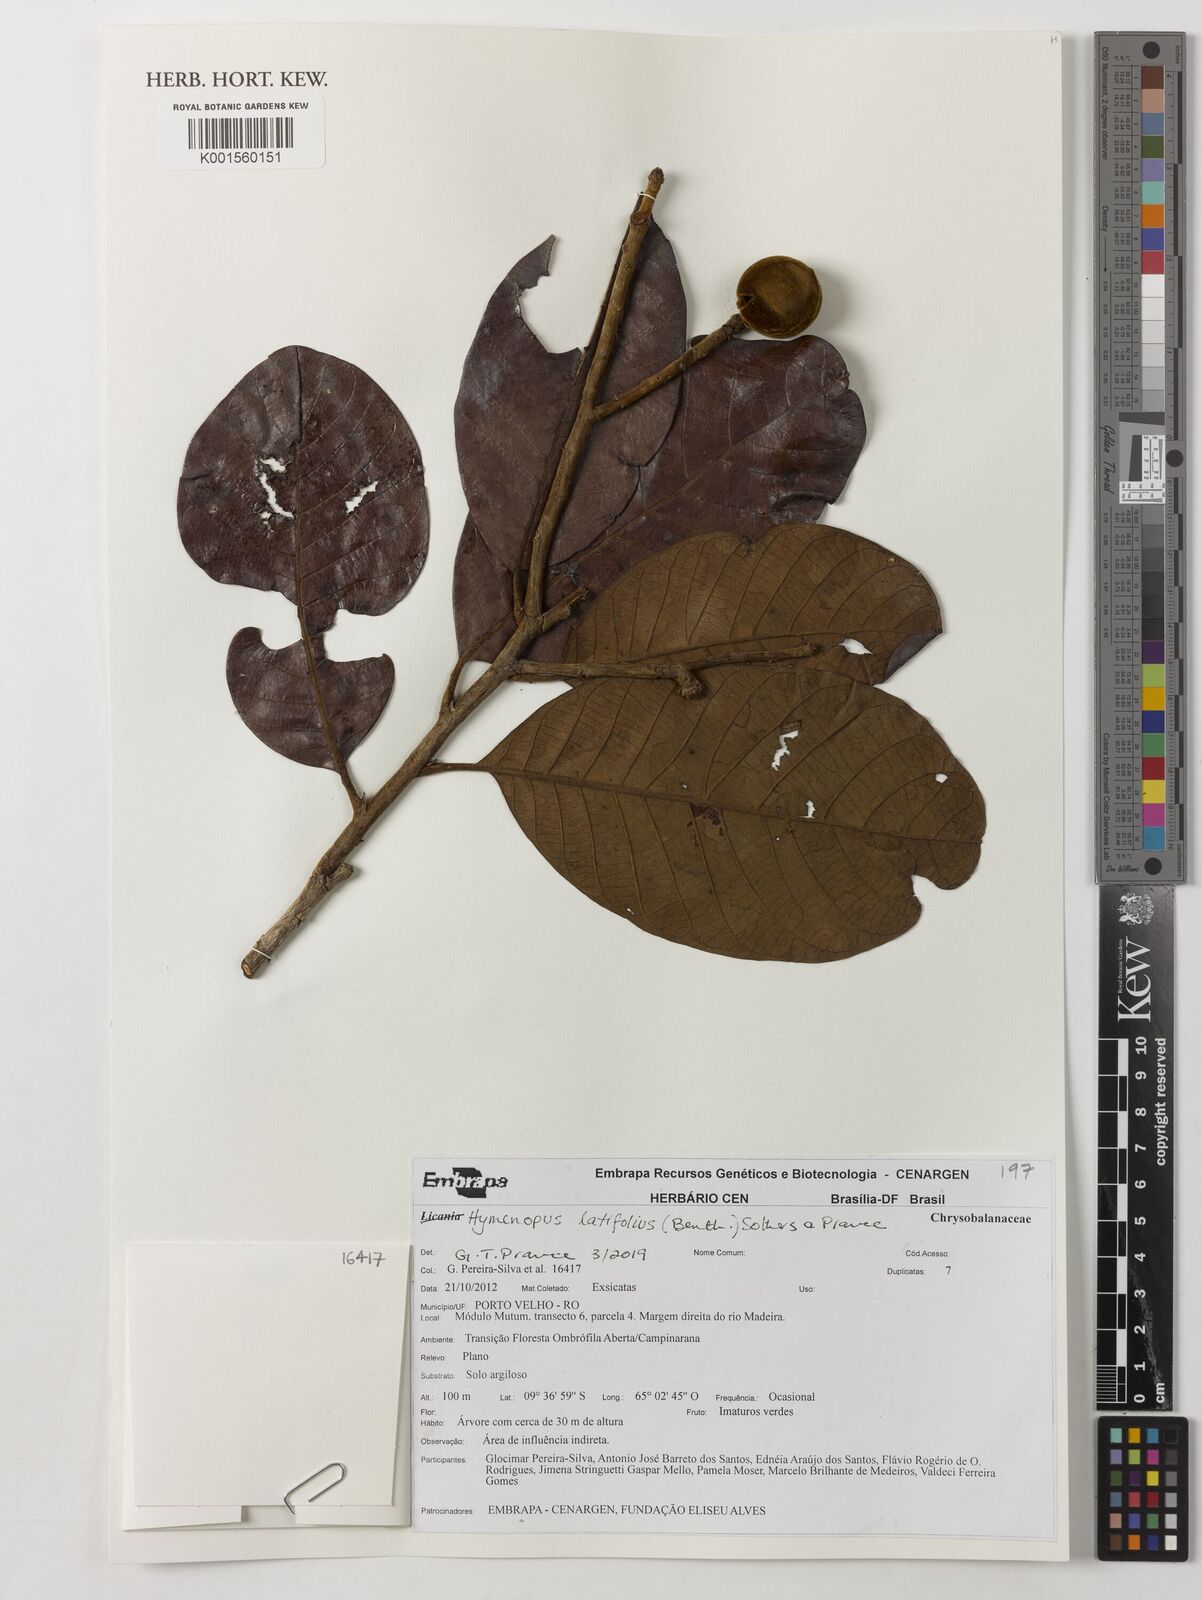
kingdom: Plantae
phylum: Tracheophyta
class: Magnoliopsida
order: Malpighiales
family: Chrysobalanaceae
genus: Hymenopus
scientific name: Hymenopus latifolius
